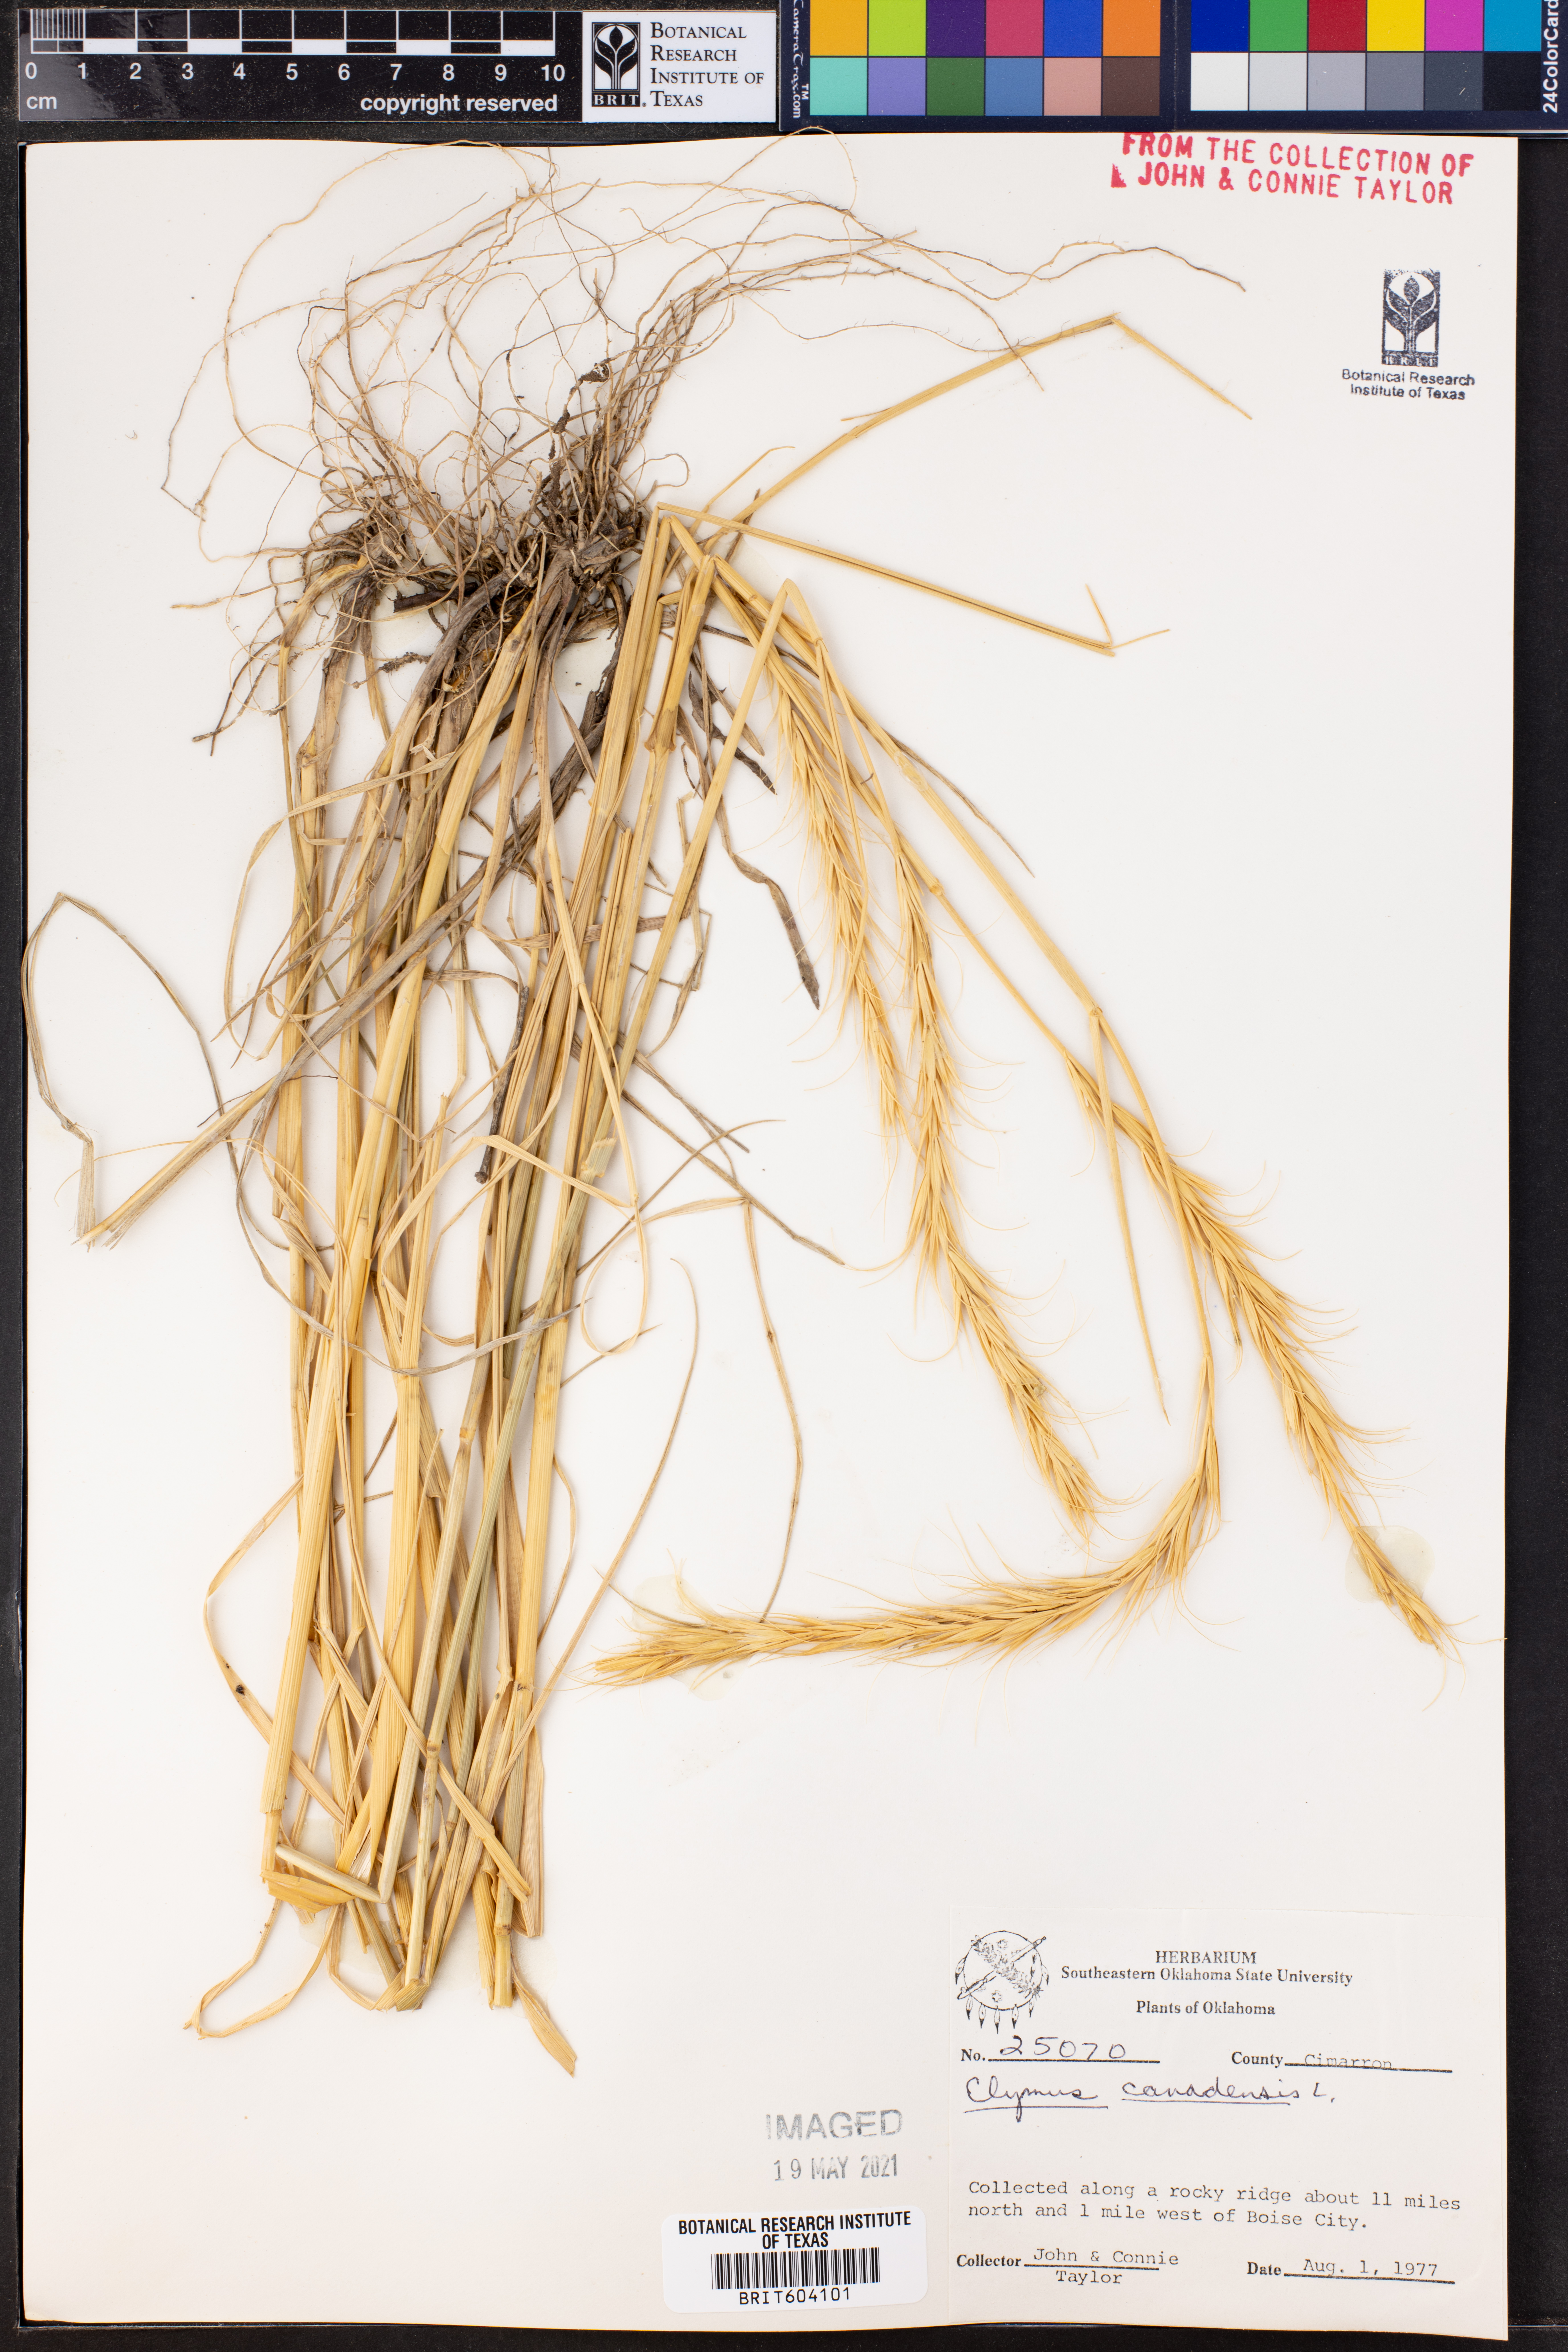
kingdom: Plantae
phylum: Tracheophyta
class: Liliopsida
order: Poales
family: Poaceae
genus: Elymus
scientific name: Elymus canadensis
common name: Canada wild rye
